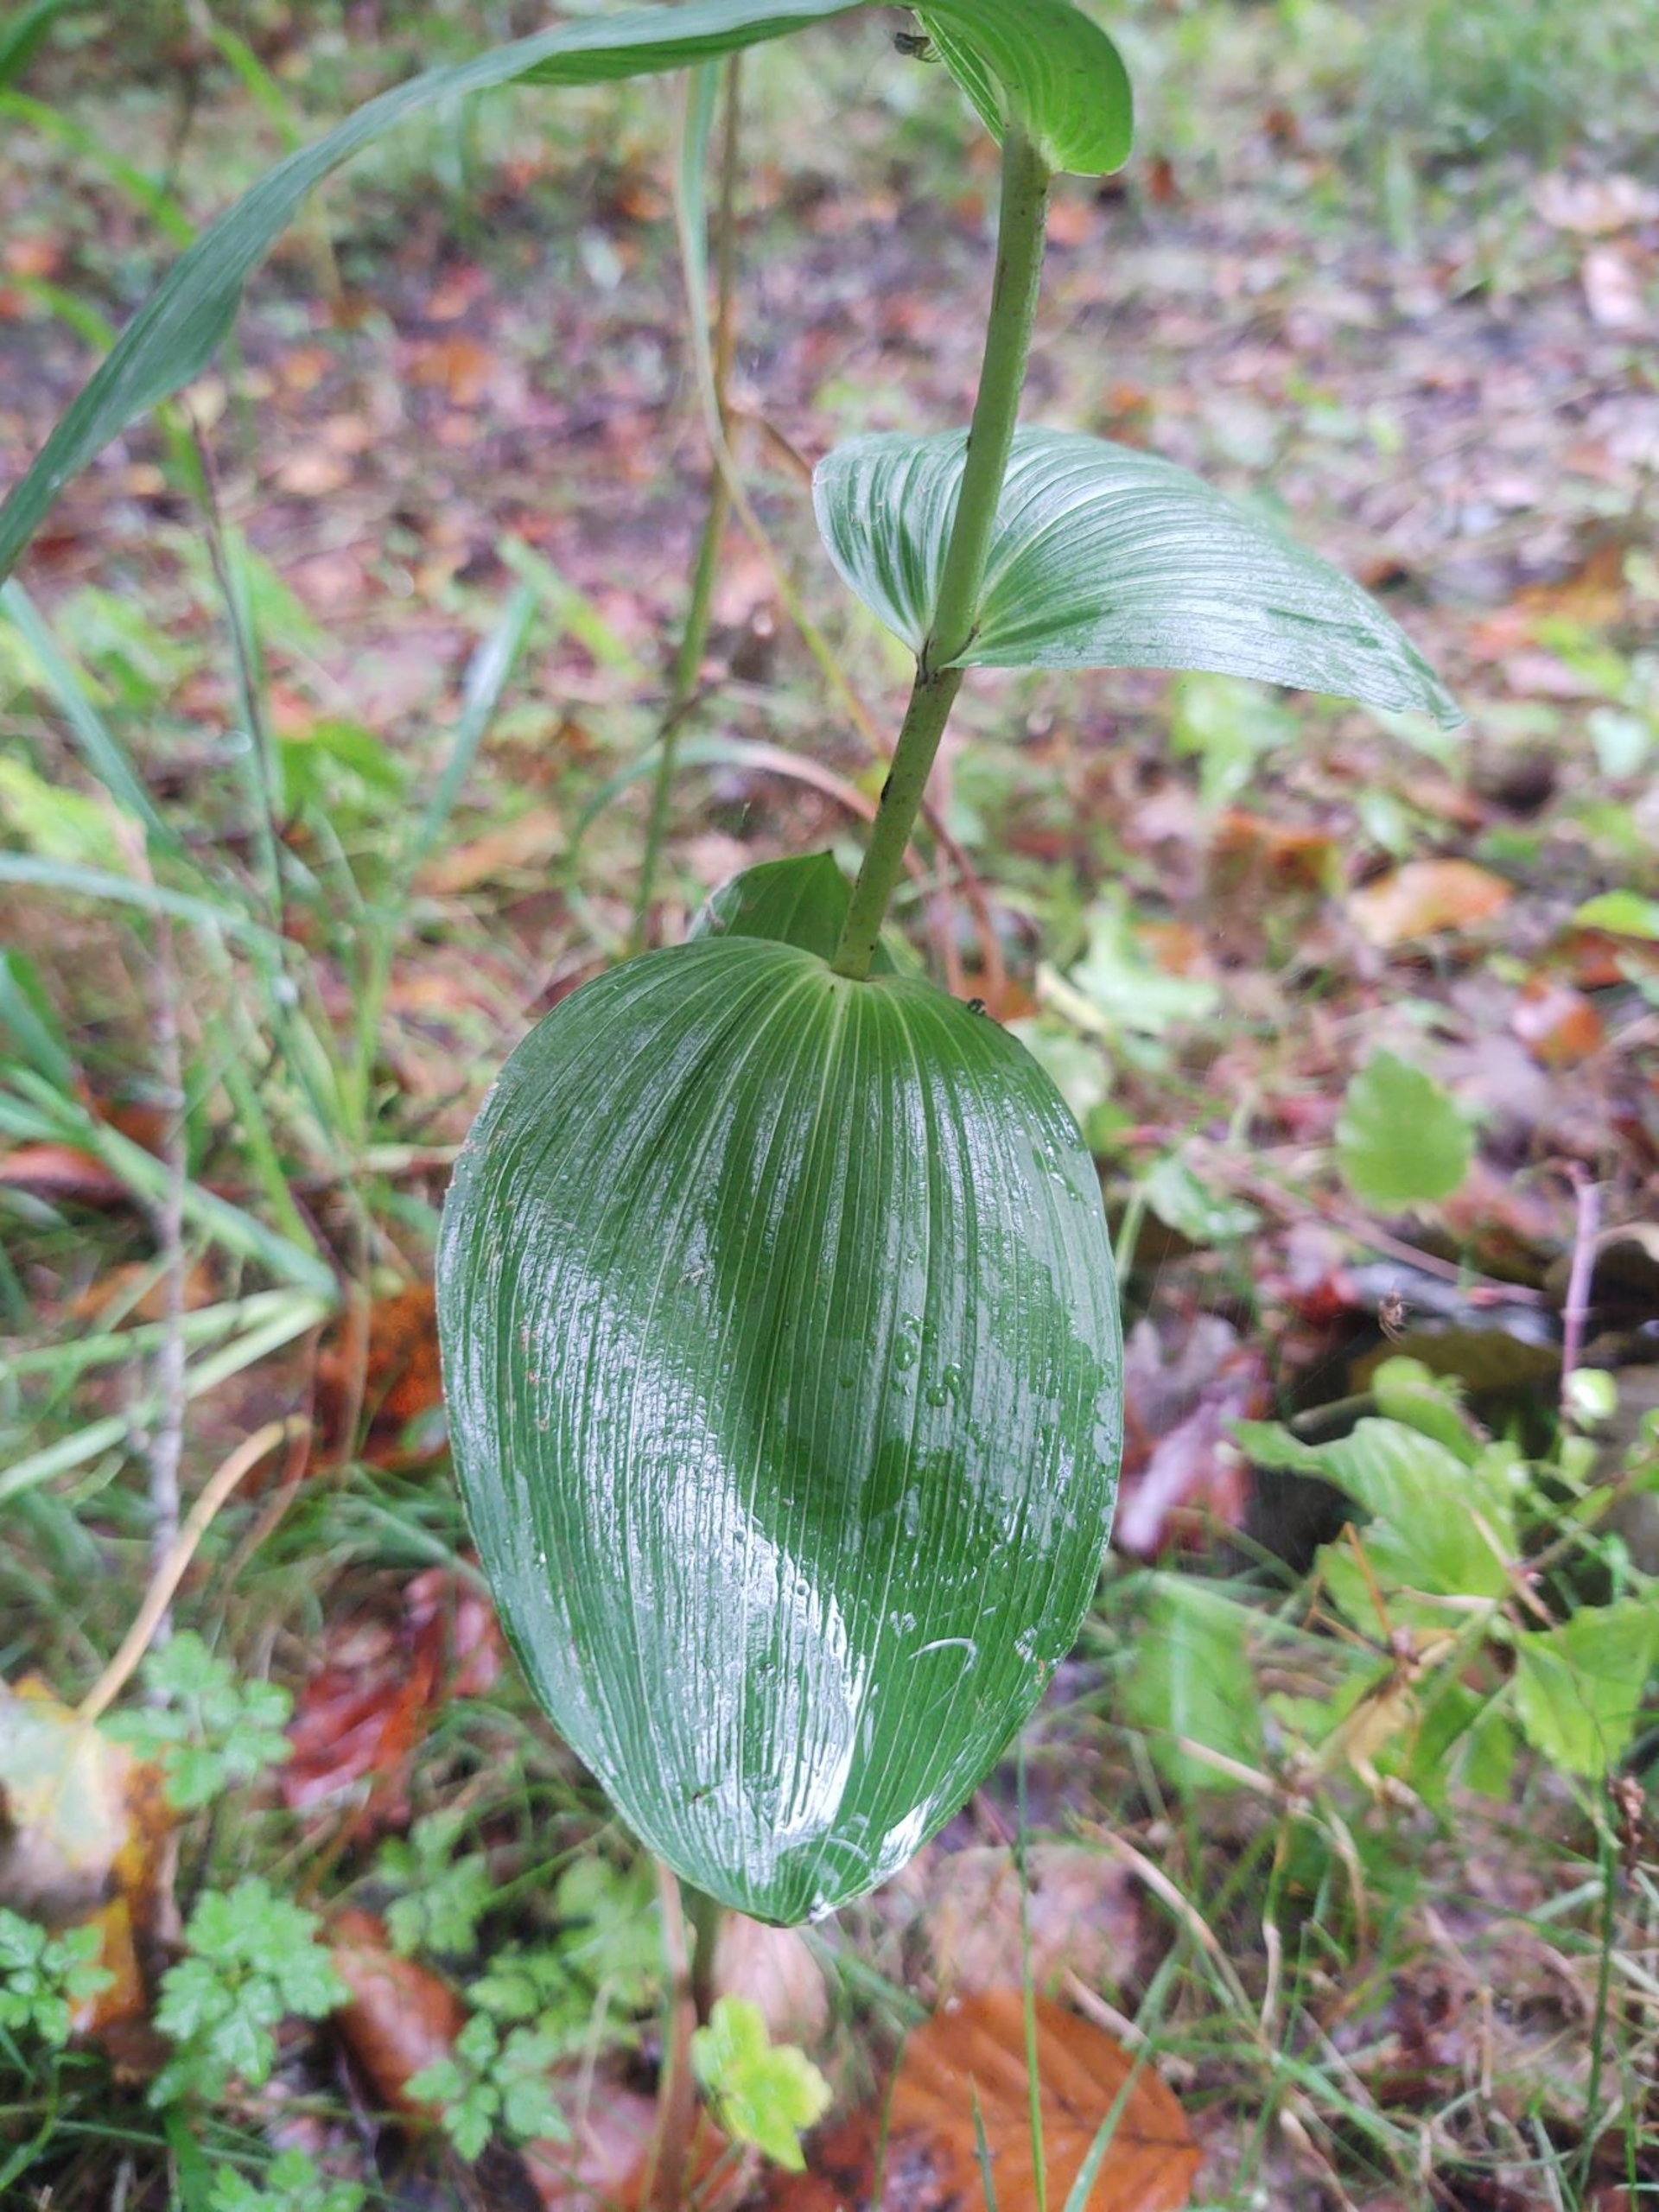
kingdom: Plantae
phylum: Tracheophyta
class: Liliopsida
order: Asparagales
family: Orchidaceae
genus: Epipactis
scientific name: Epipactis helleborine
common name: Skov-hullæbe
